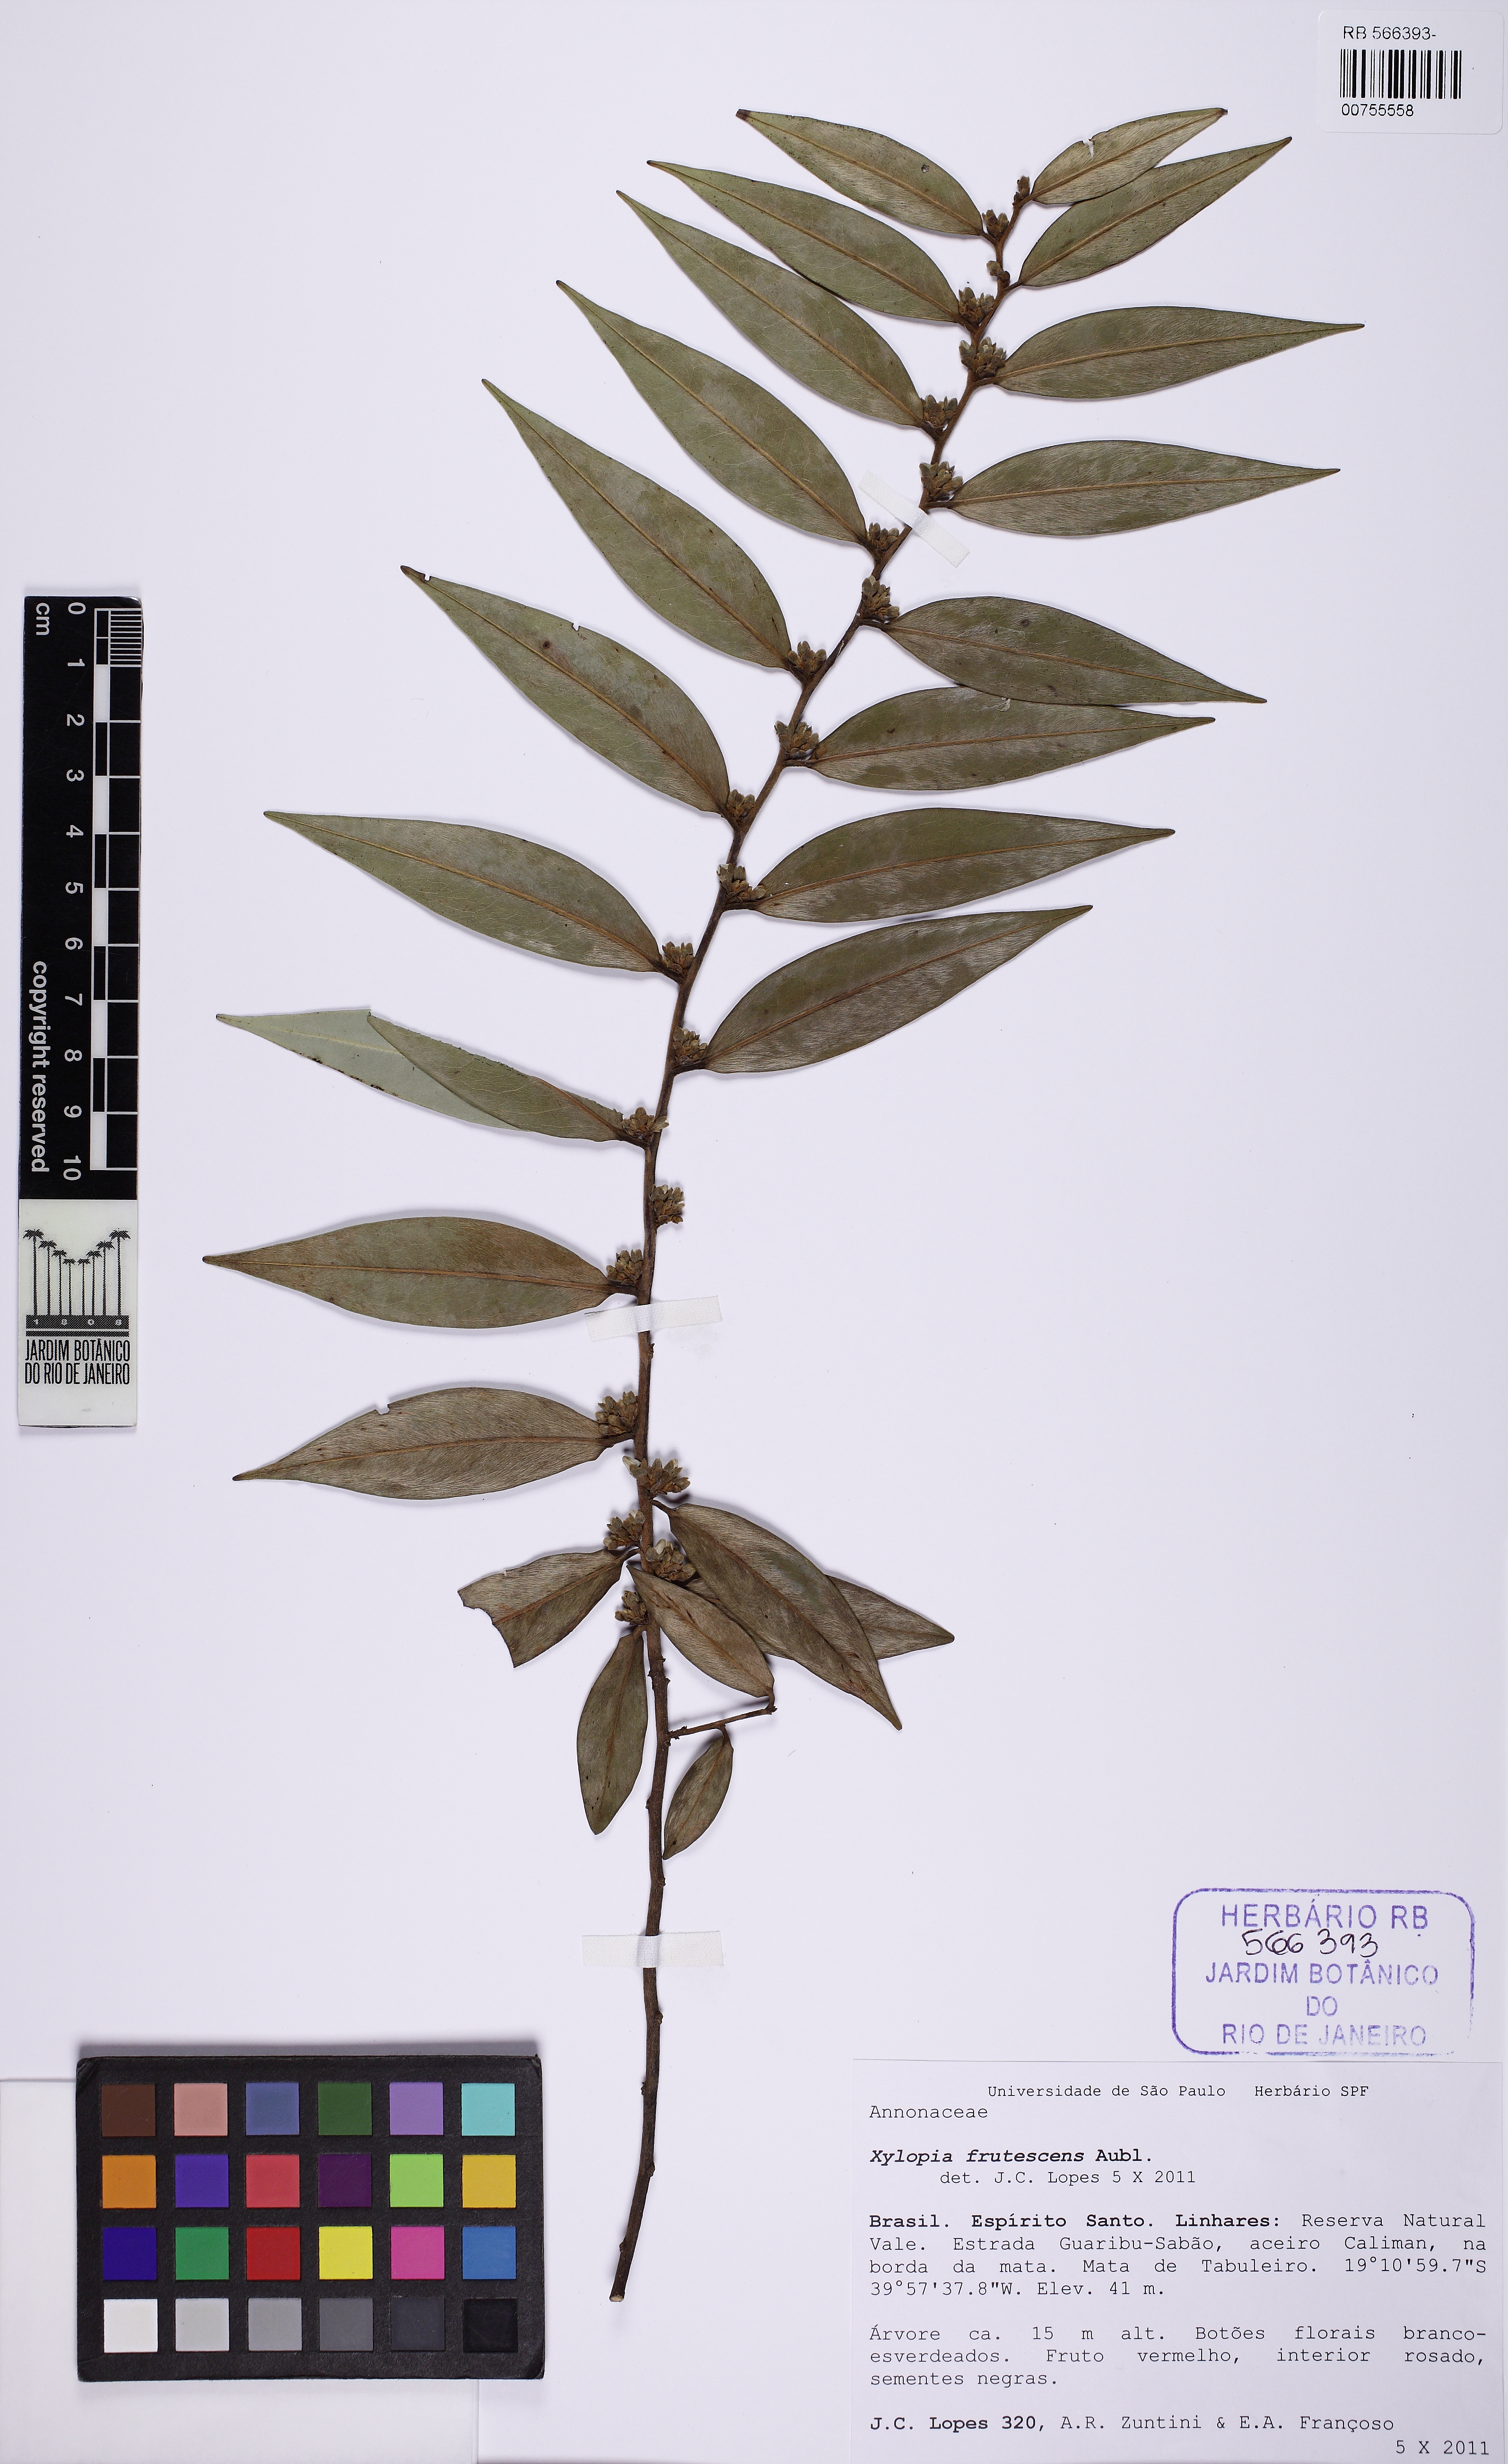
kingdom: Plantae
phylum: Tracheophyta
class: Magnoliopsida
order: Magnoliales
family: Annonaceae
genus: Xylopia
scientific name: Xylopia frutescens
